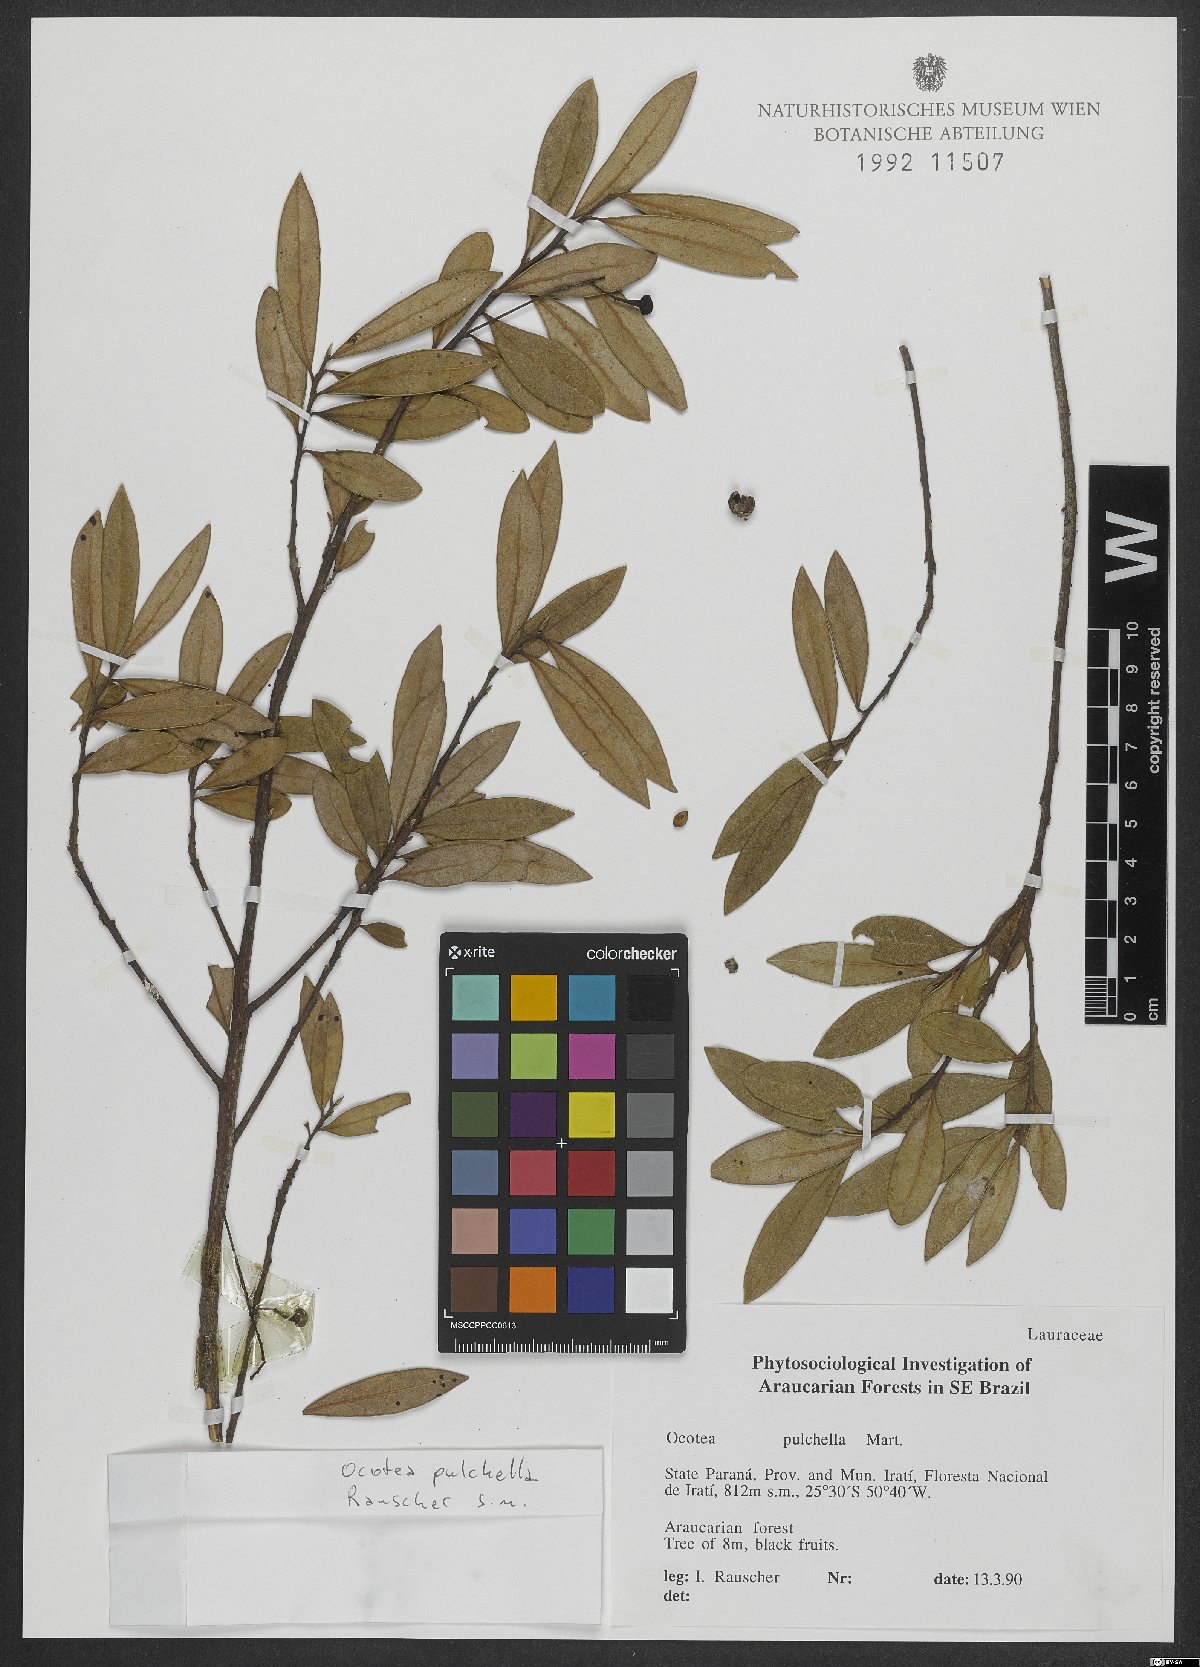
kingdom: Plantae
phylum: Tracheophyta
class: Magnoliopsida
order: Laurales
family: Lauraceae
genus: Mespilodaphne
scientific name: Mespilodaphne pulchella
